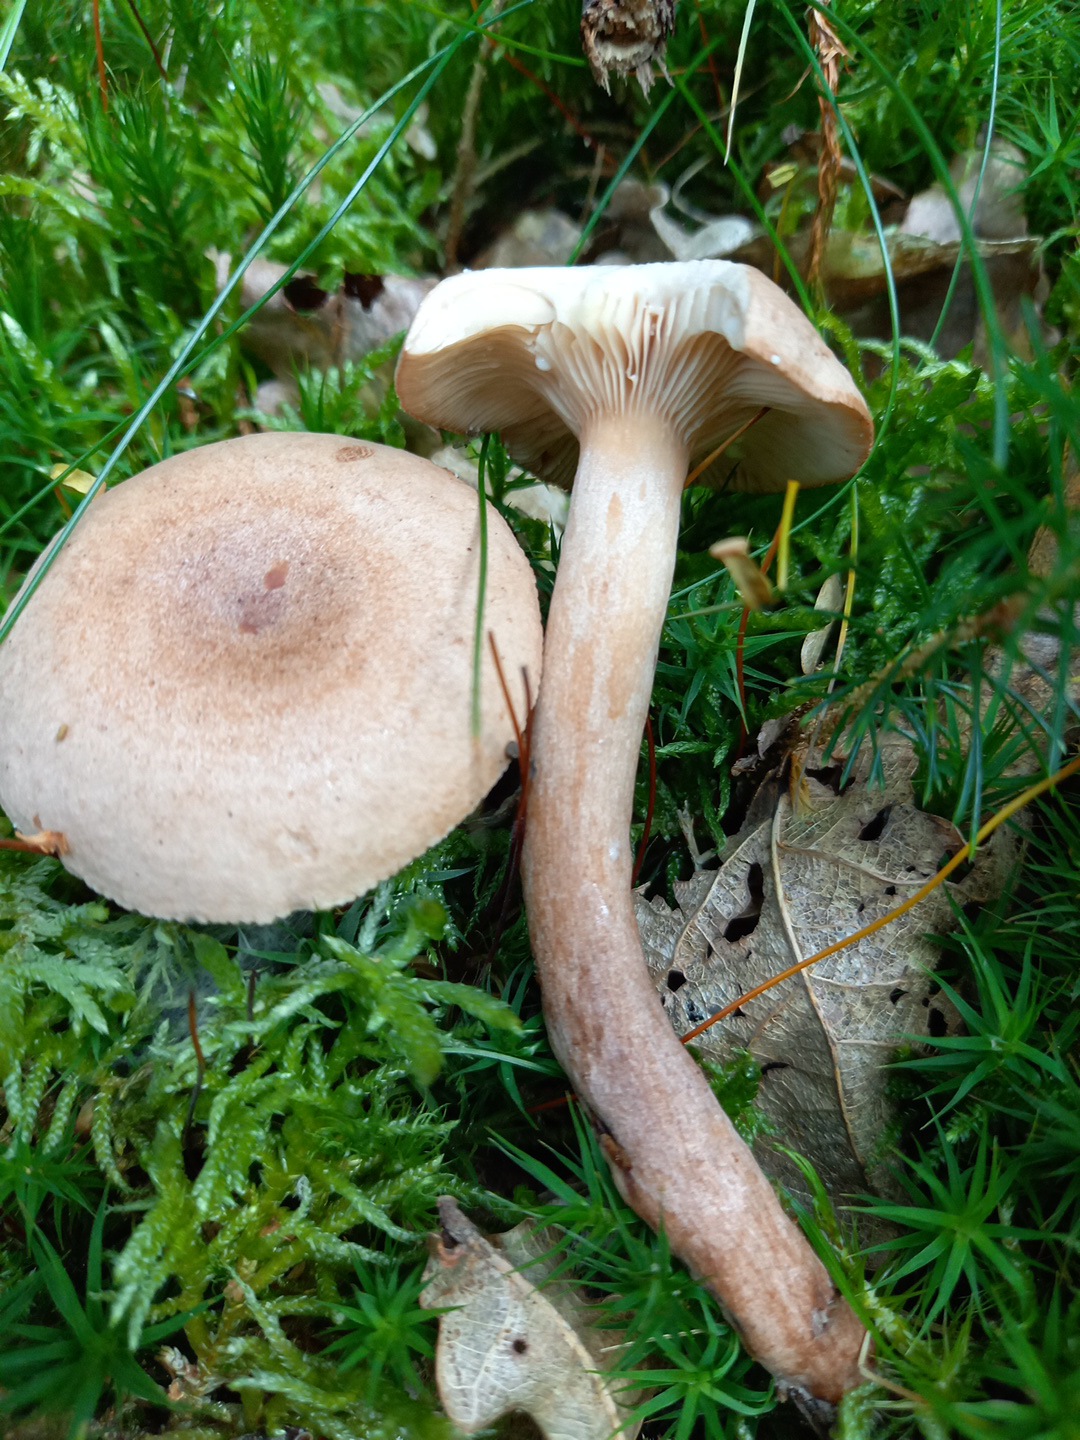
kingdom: Fungi
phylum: Basidiomycota
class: Agaricomycetes
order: Russulales
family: Russulaceae
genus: Lactarius
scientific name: Lactarius quietus
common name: ege-mælkehat
